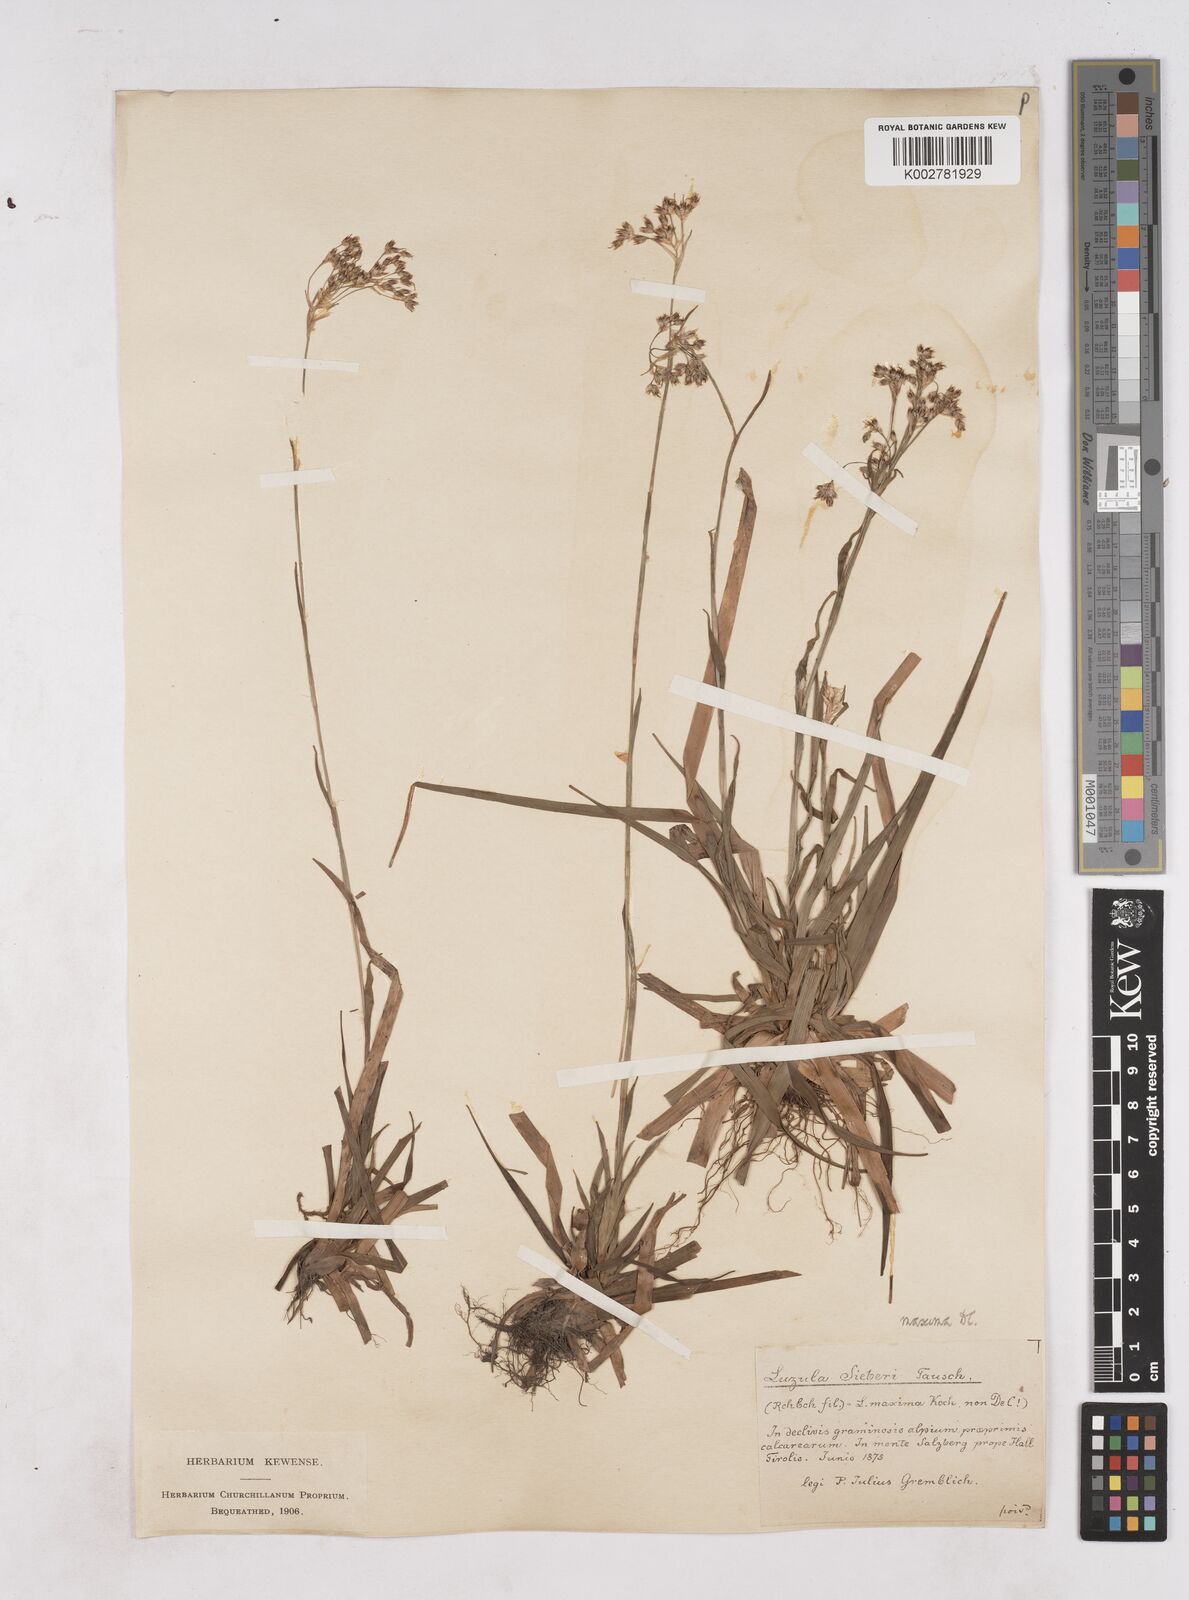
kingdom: Plantae
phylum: Tracheophyta
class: Liliopsida
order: Poales
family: Juncaceae
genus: Luzula
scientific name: Luzula sylvatica
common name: Great wood-rush
